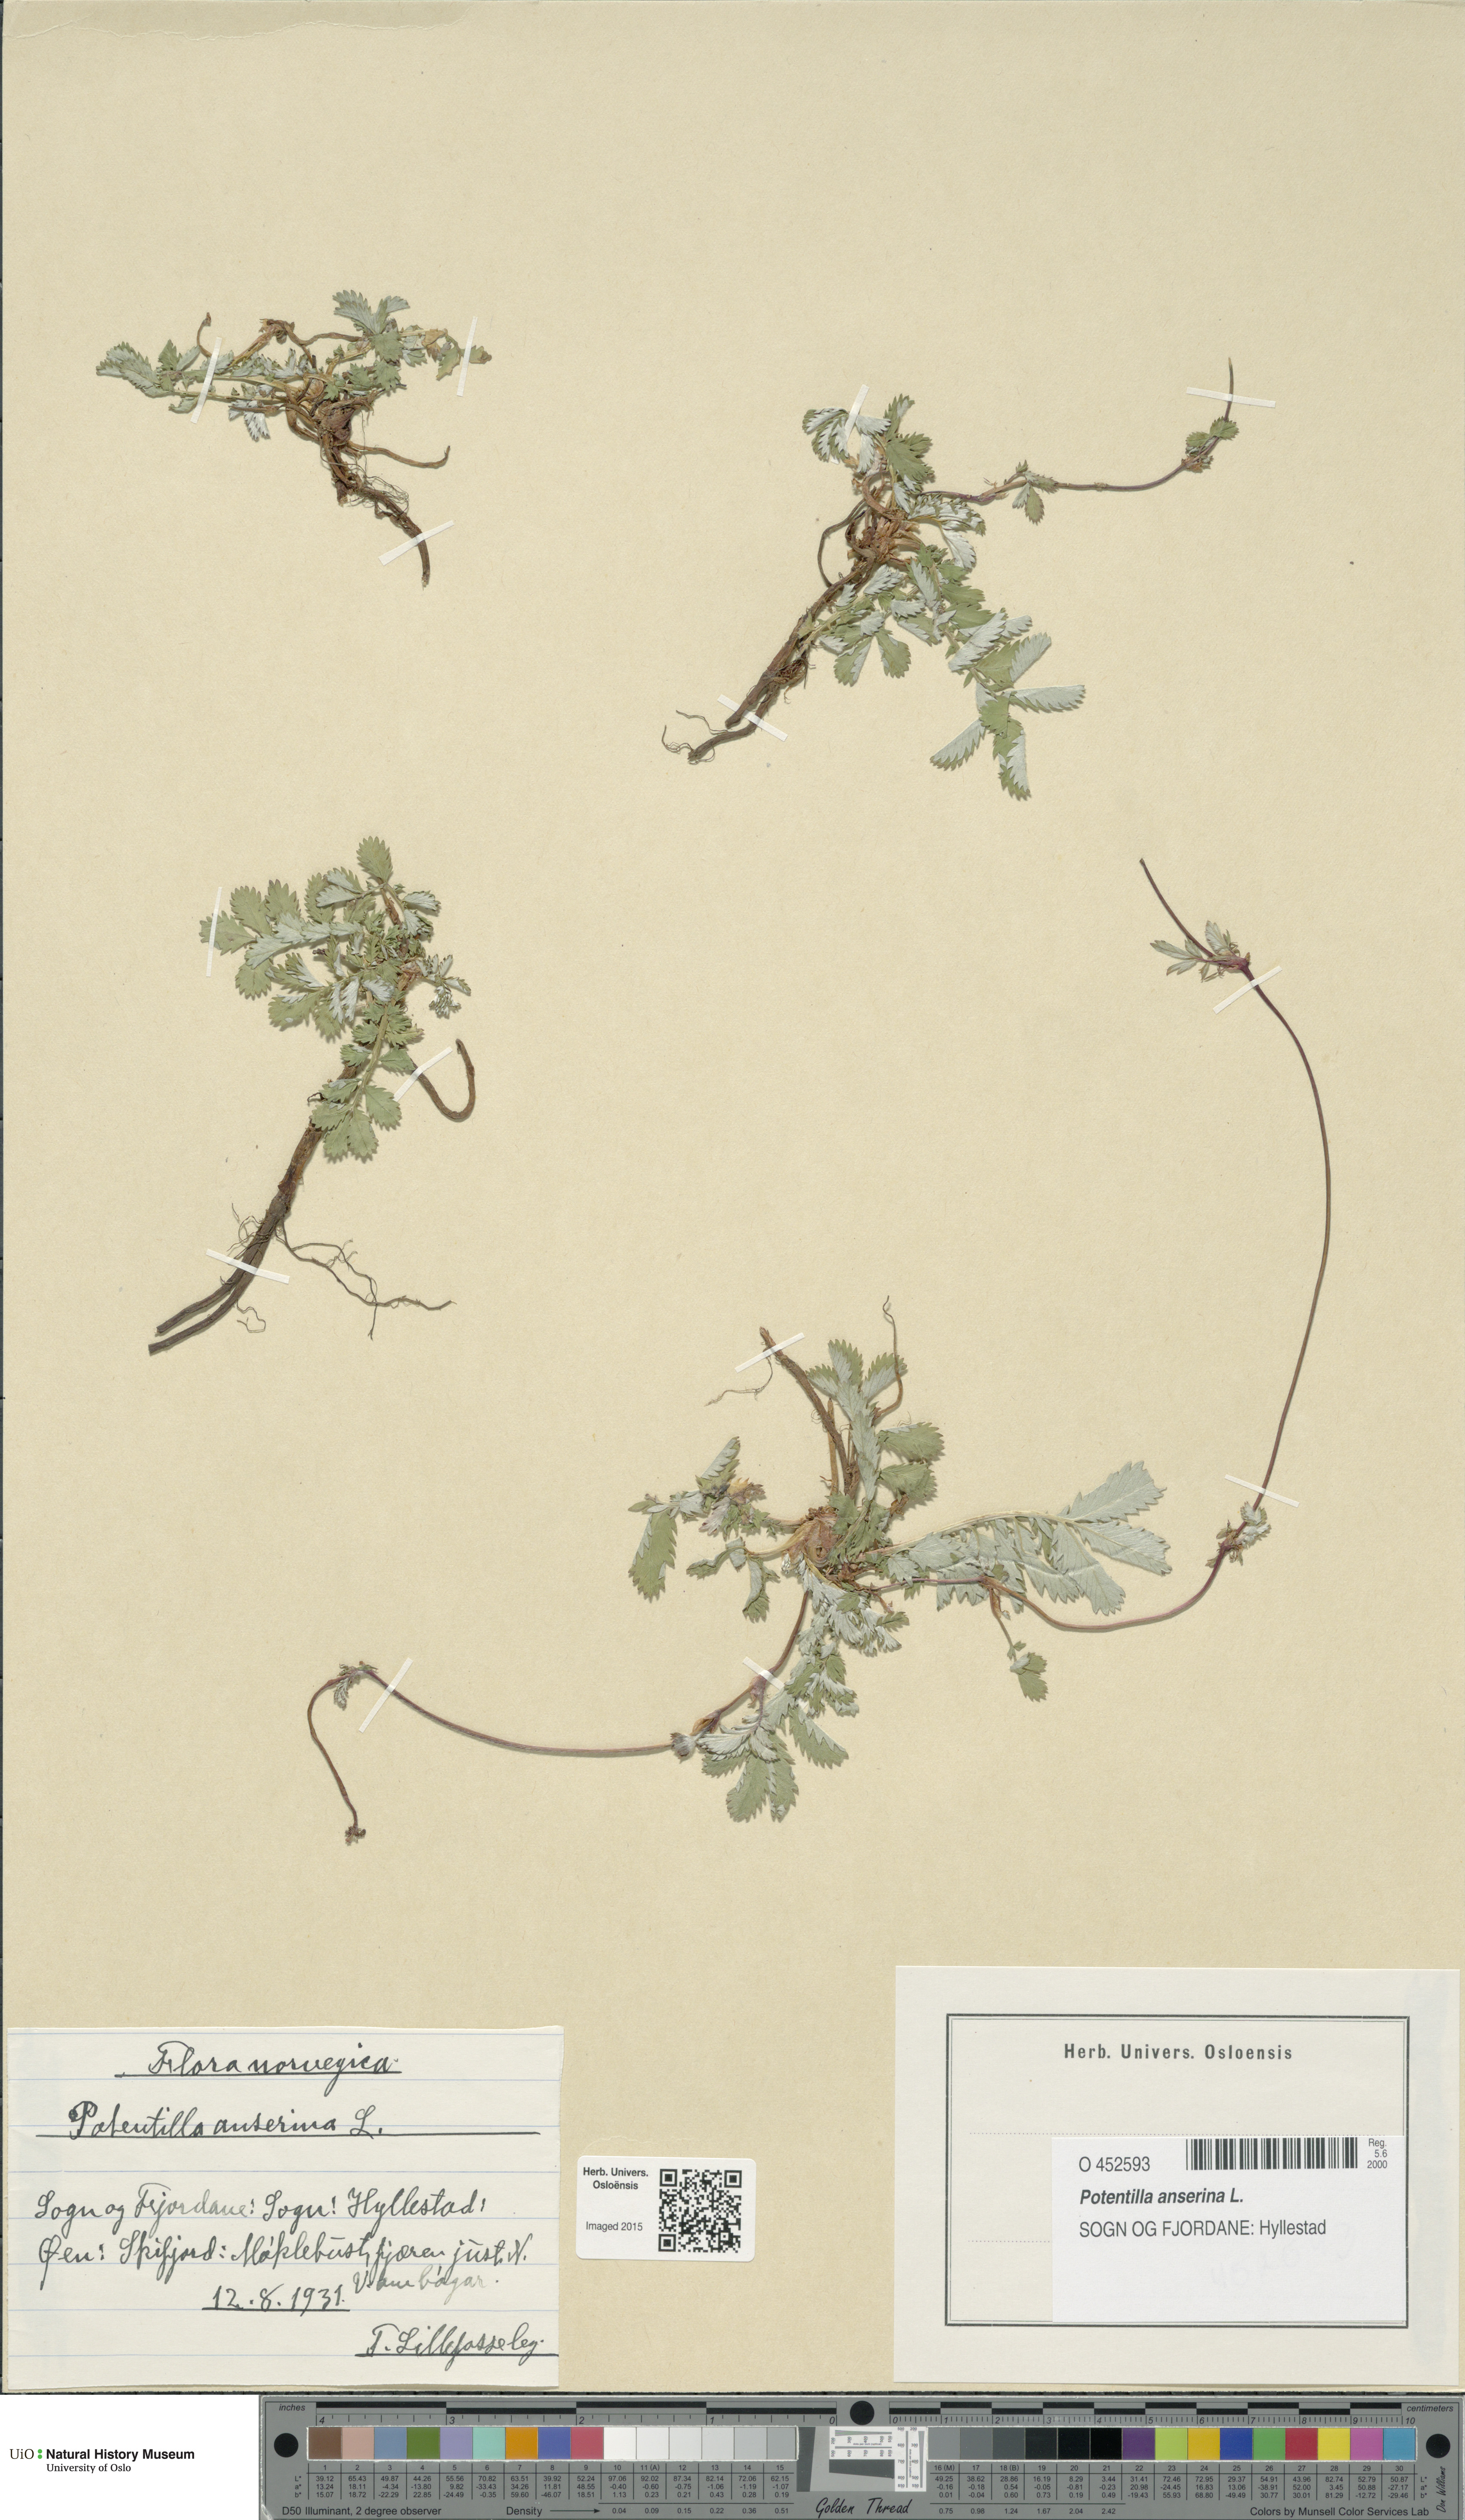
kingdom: Plantae
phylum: Tracheophyta
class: Magnoliopsida
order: Rosales
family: Rosaceae
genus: Argentina
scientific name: Argentina anserina
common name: Common silverweed
